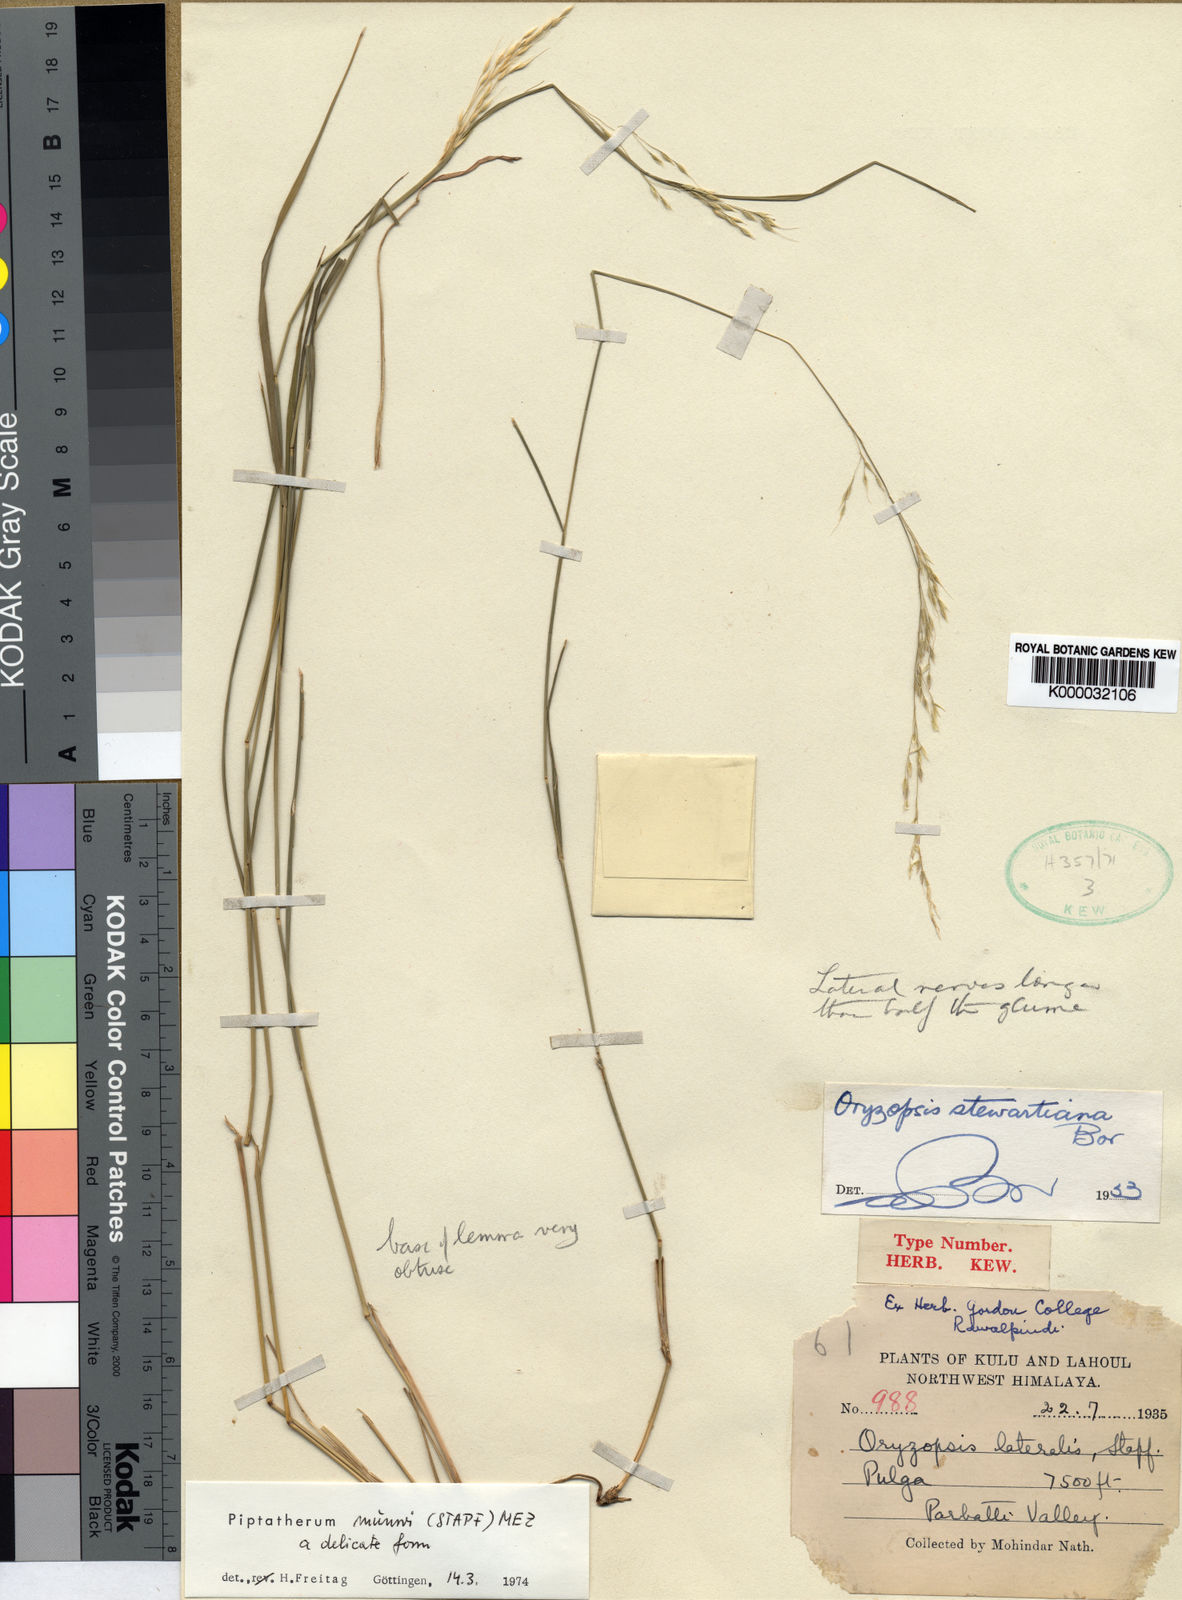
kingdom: Plantae
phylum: Tracheophyta
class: Liliopsida
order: Poales
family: Poaceae
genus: Piptatherum
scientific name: Piptatherum munroi
